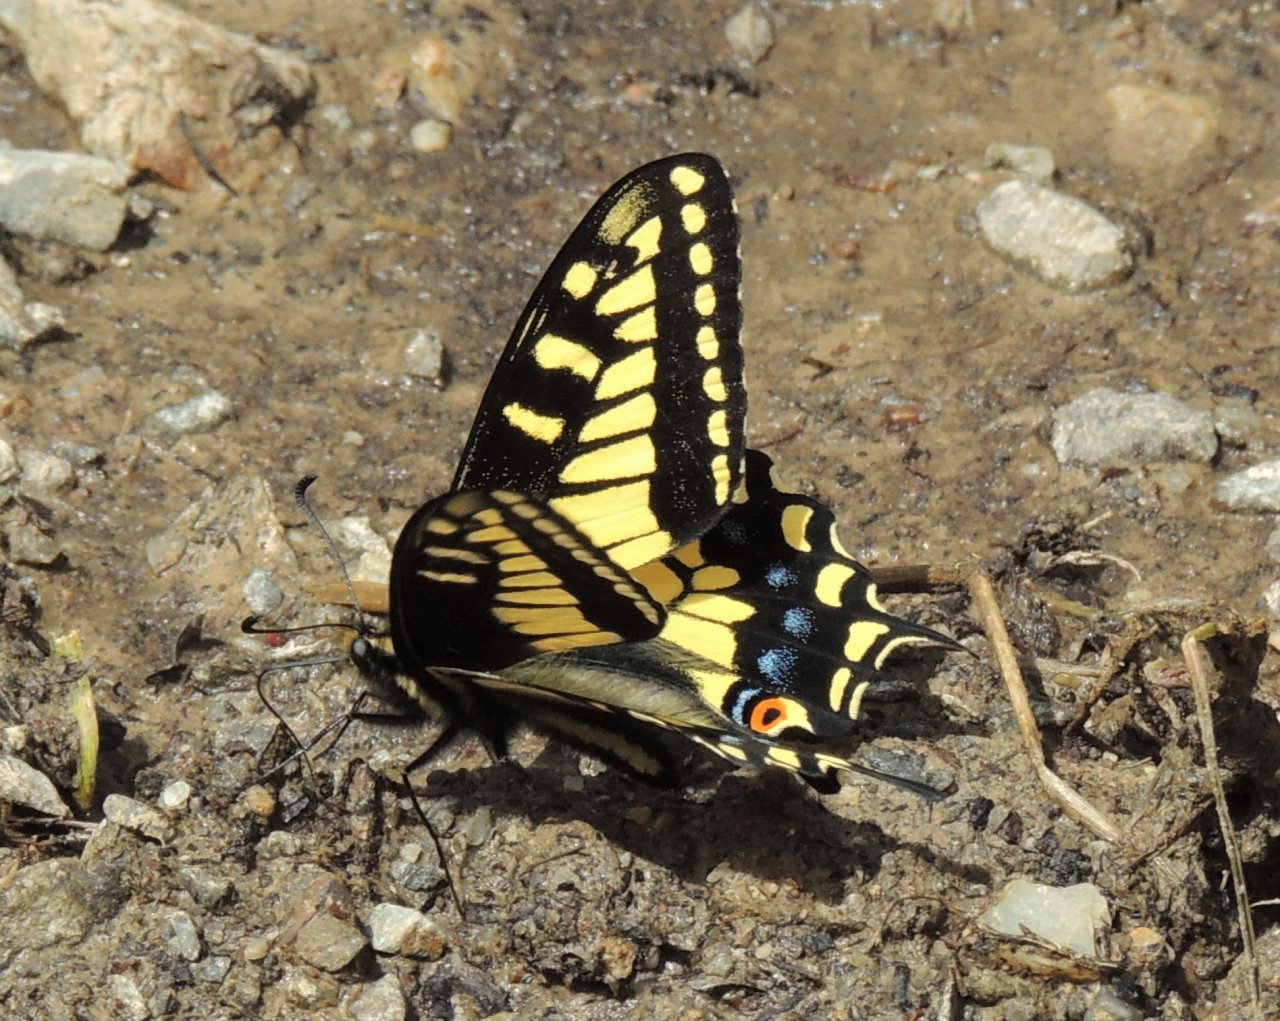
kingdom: Animalia
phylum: Arthropoda
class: Insecta
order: Lepidoptera
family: Papilionidae
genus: Papilio
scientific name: Papilio zelicaon
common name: Anise Swallowtail
